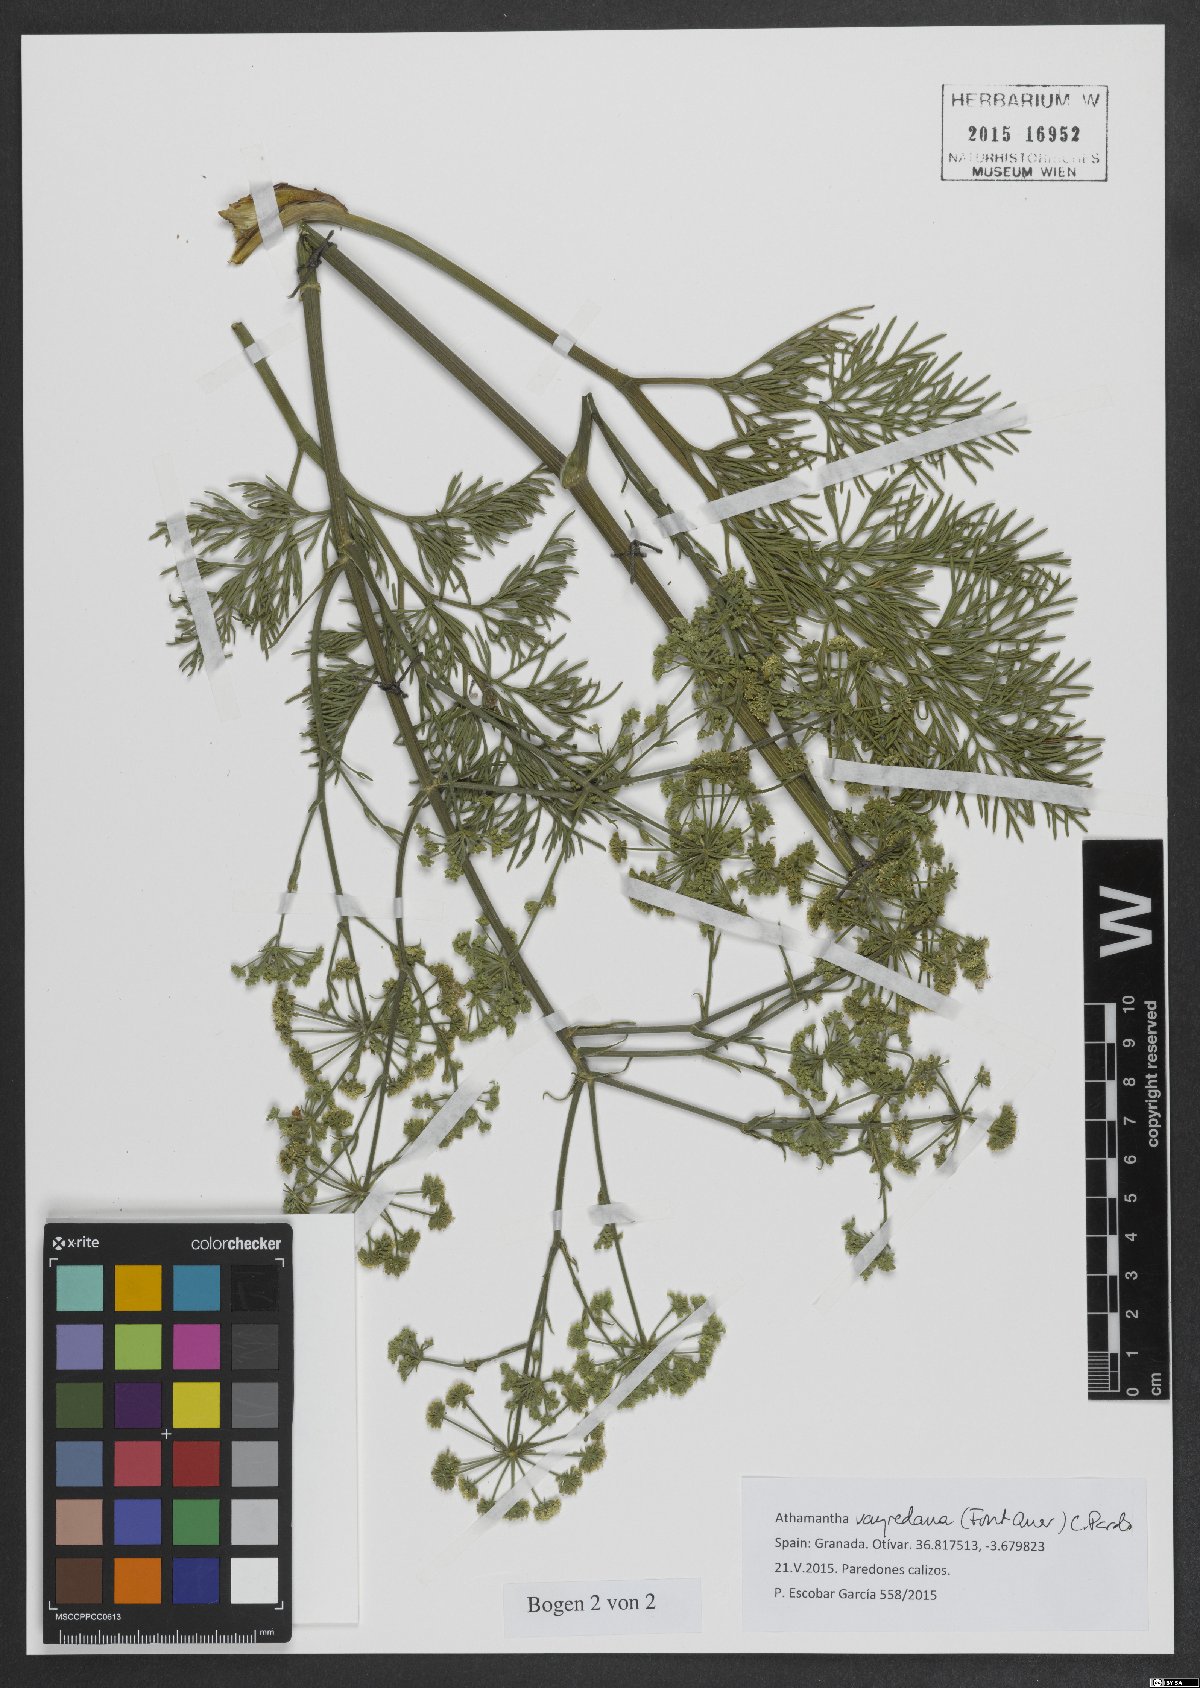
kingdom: Plantae
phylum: Tracheophyta
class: Magnoliopsida
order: Apiales
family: Apiaceae
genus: Athamanta
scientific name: Athamanta vayredana
